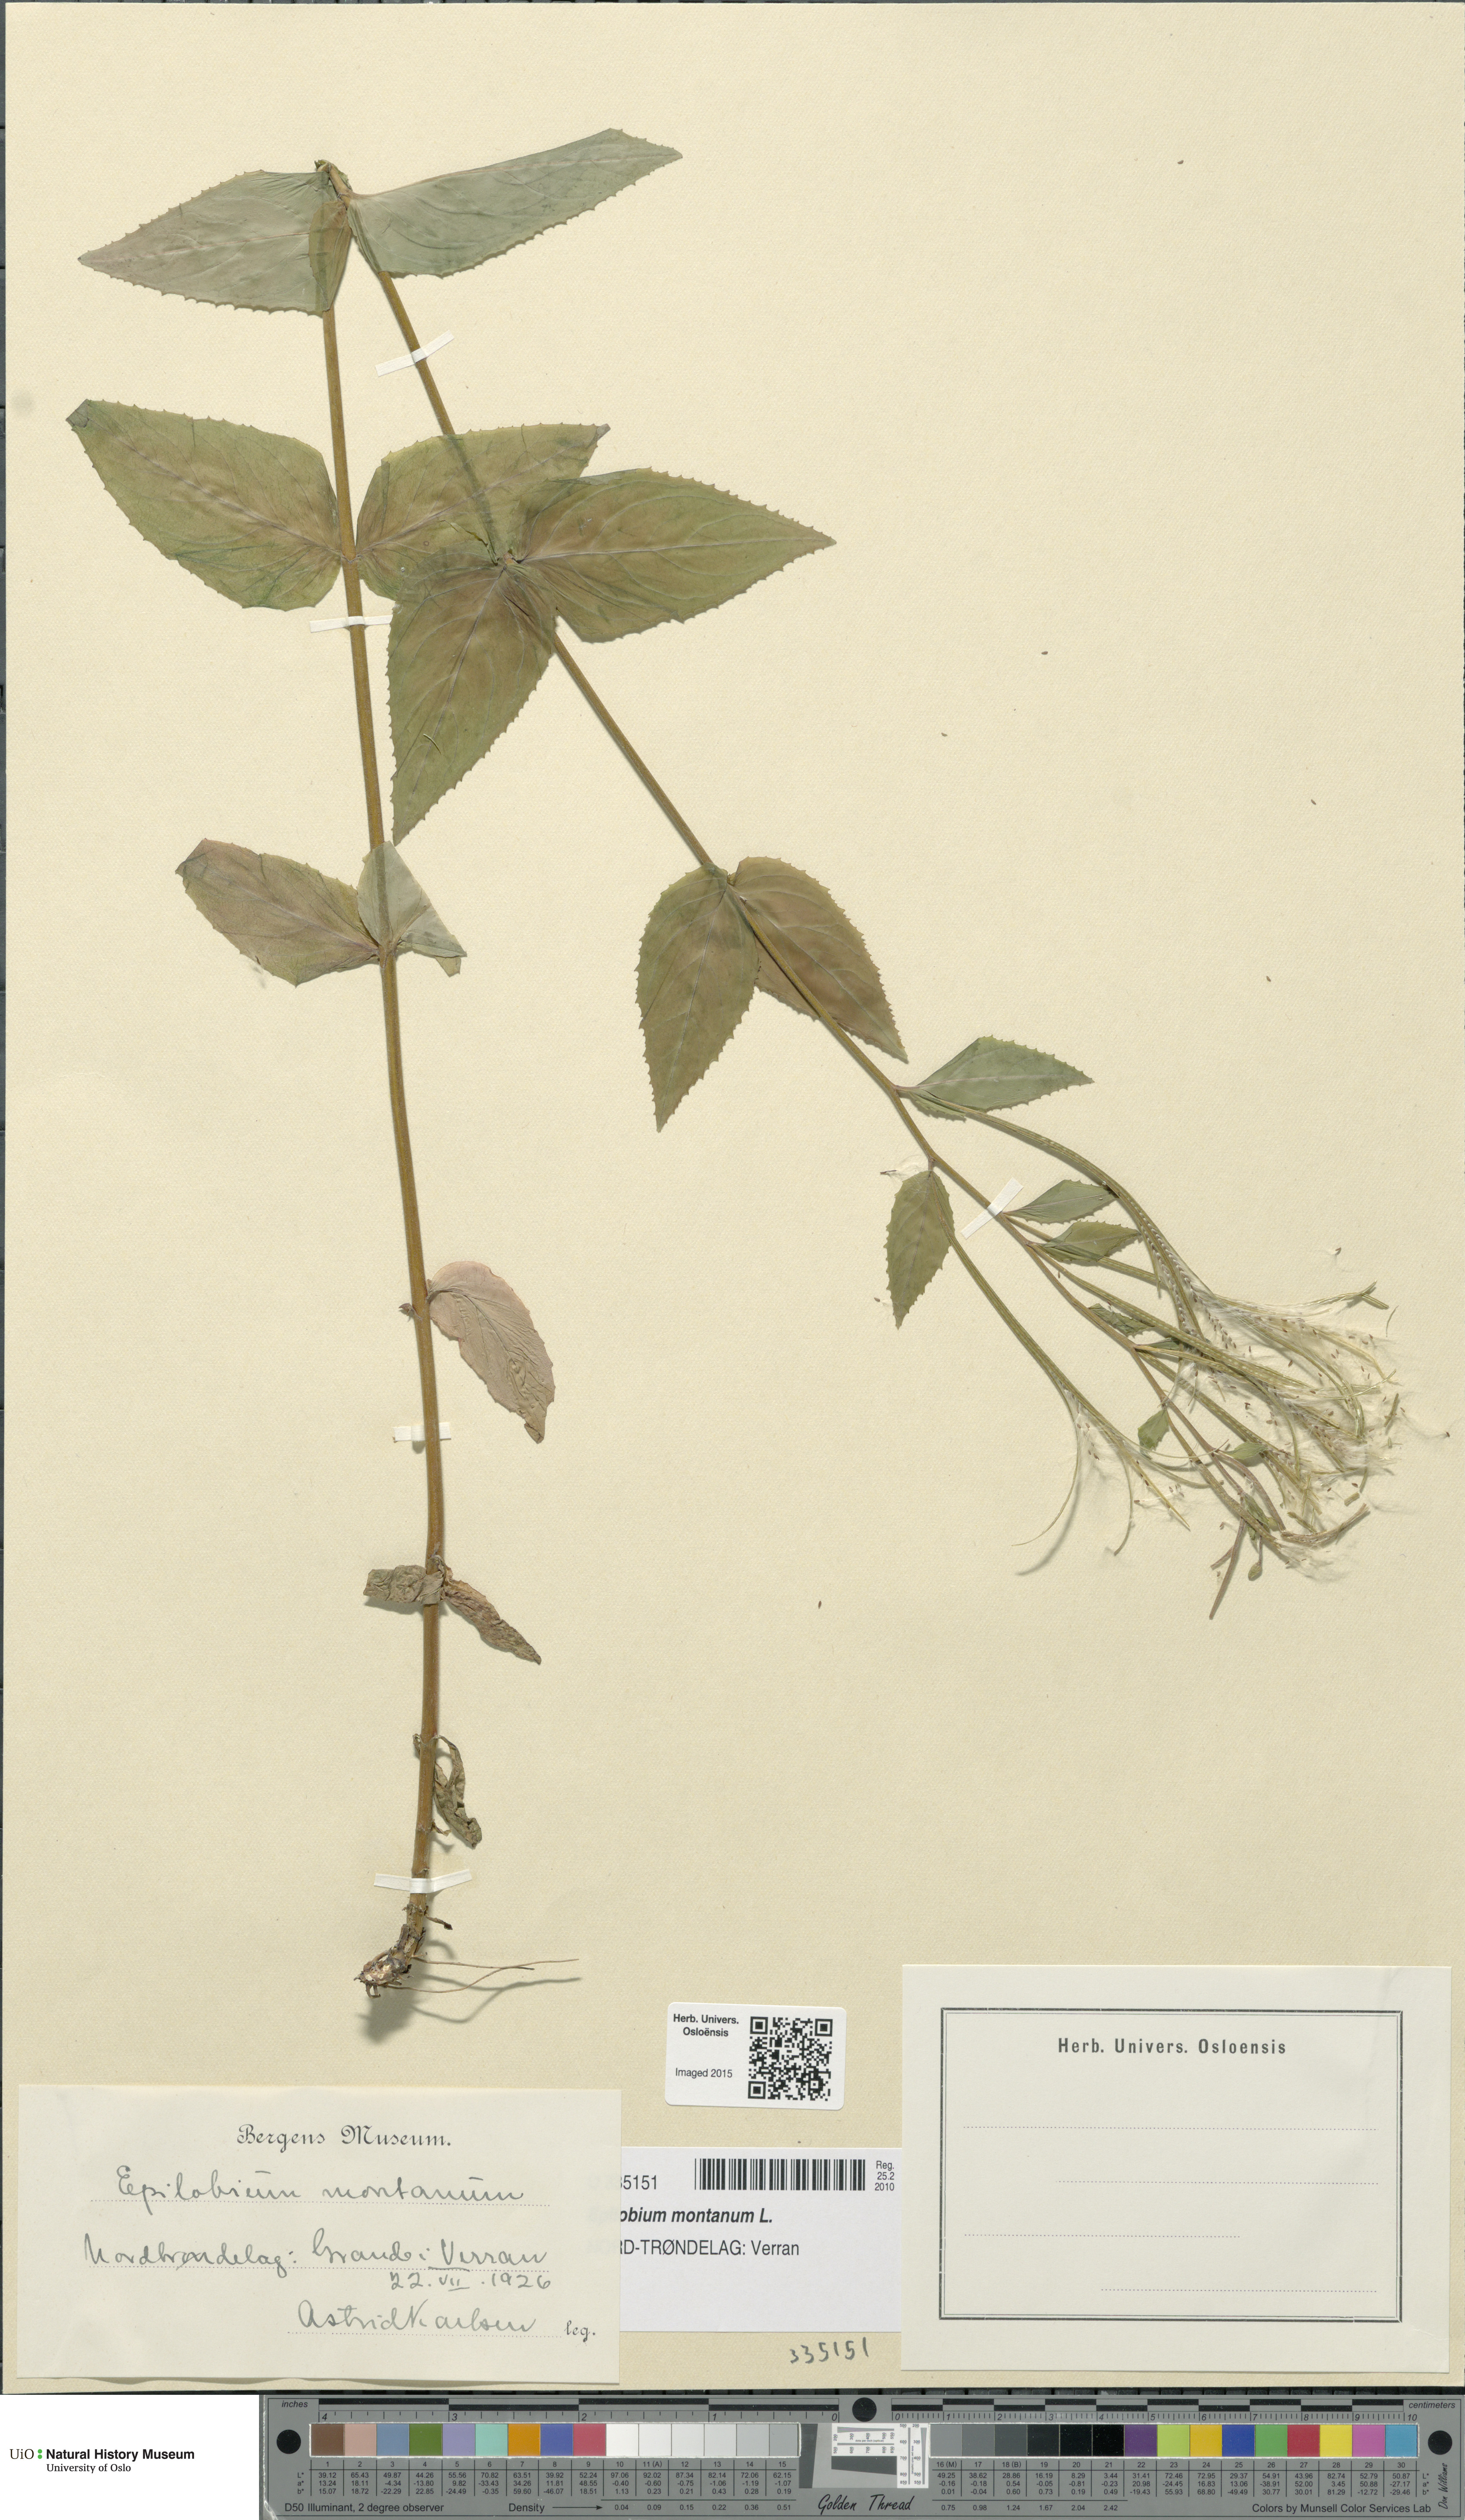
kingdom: Plantae
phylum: Tracheophyta
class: Magnoliopsida
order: Myrtales
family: Onagraceae
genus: Epilobium
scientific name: Epilobium montanum
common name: Broad-leaved willowherb
